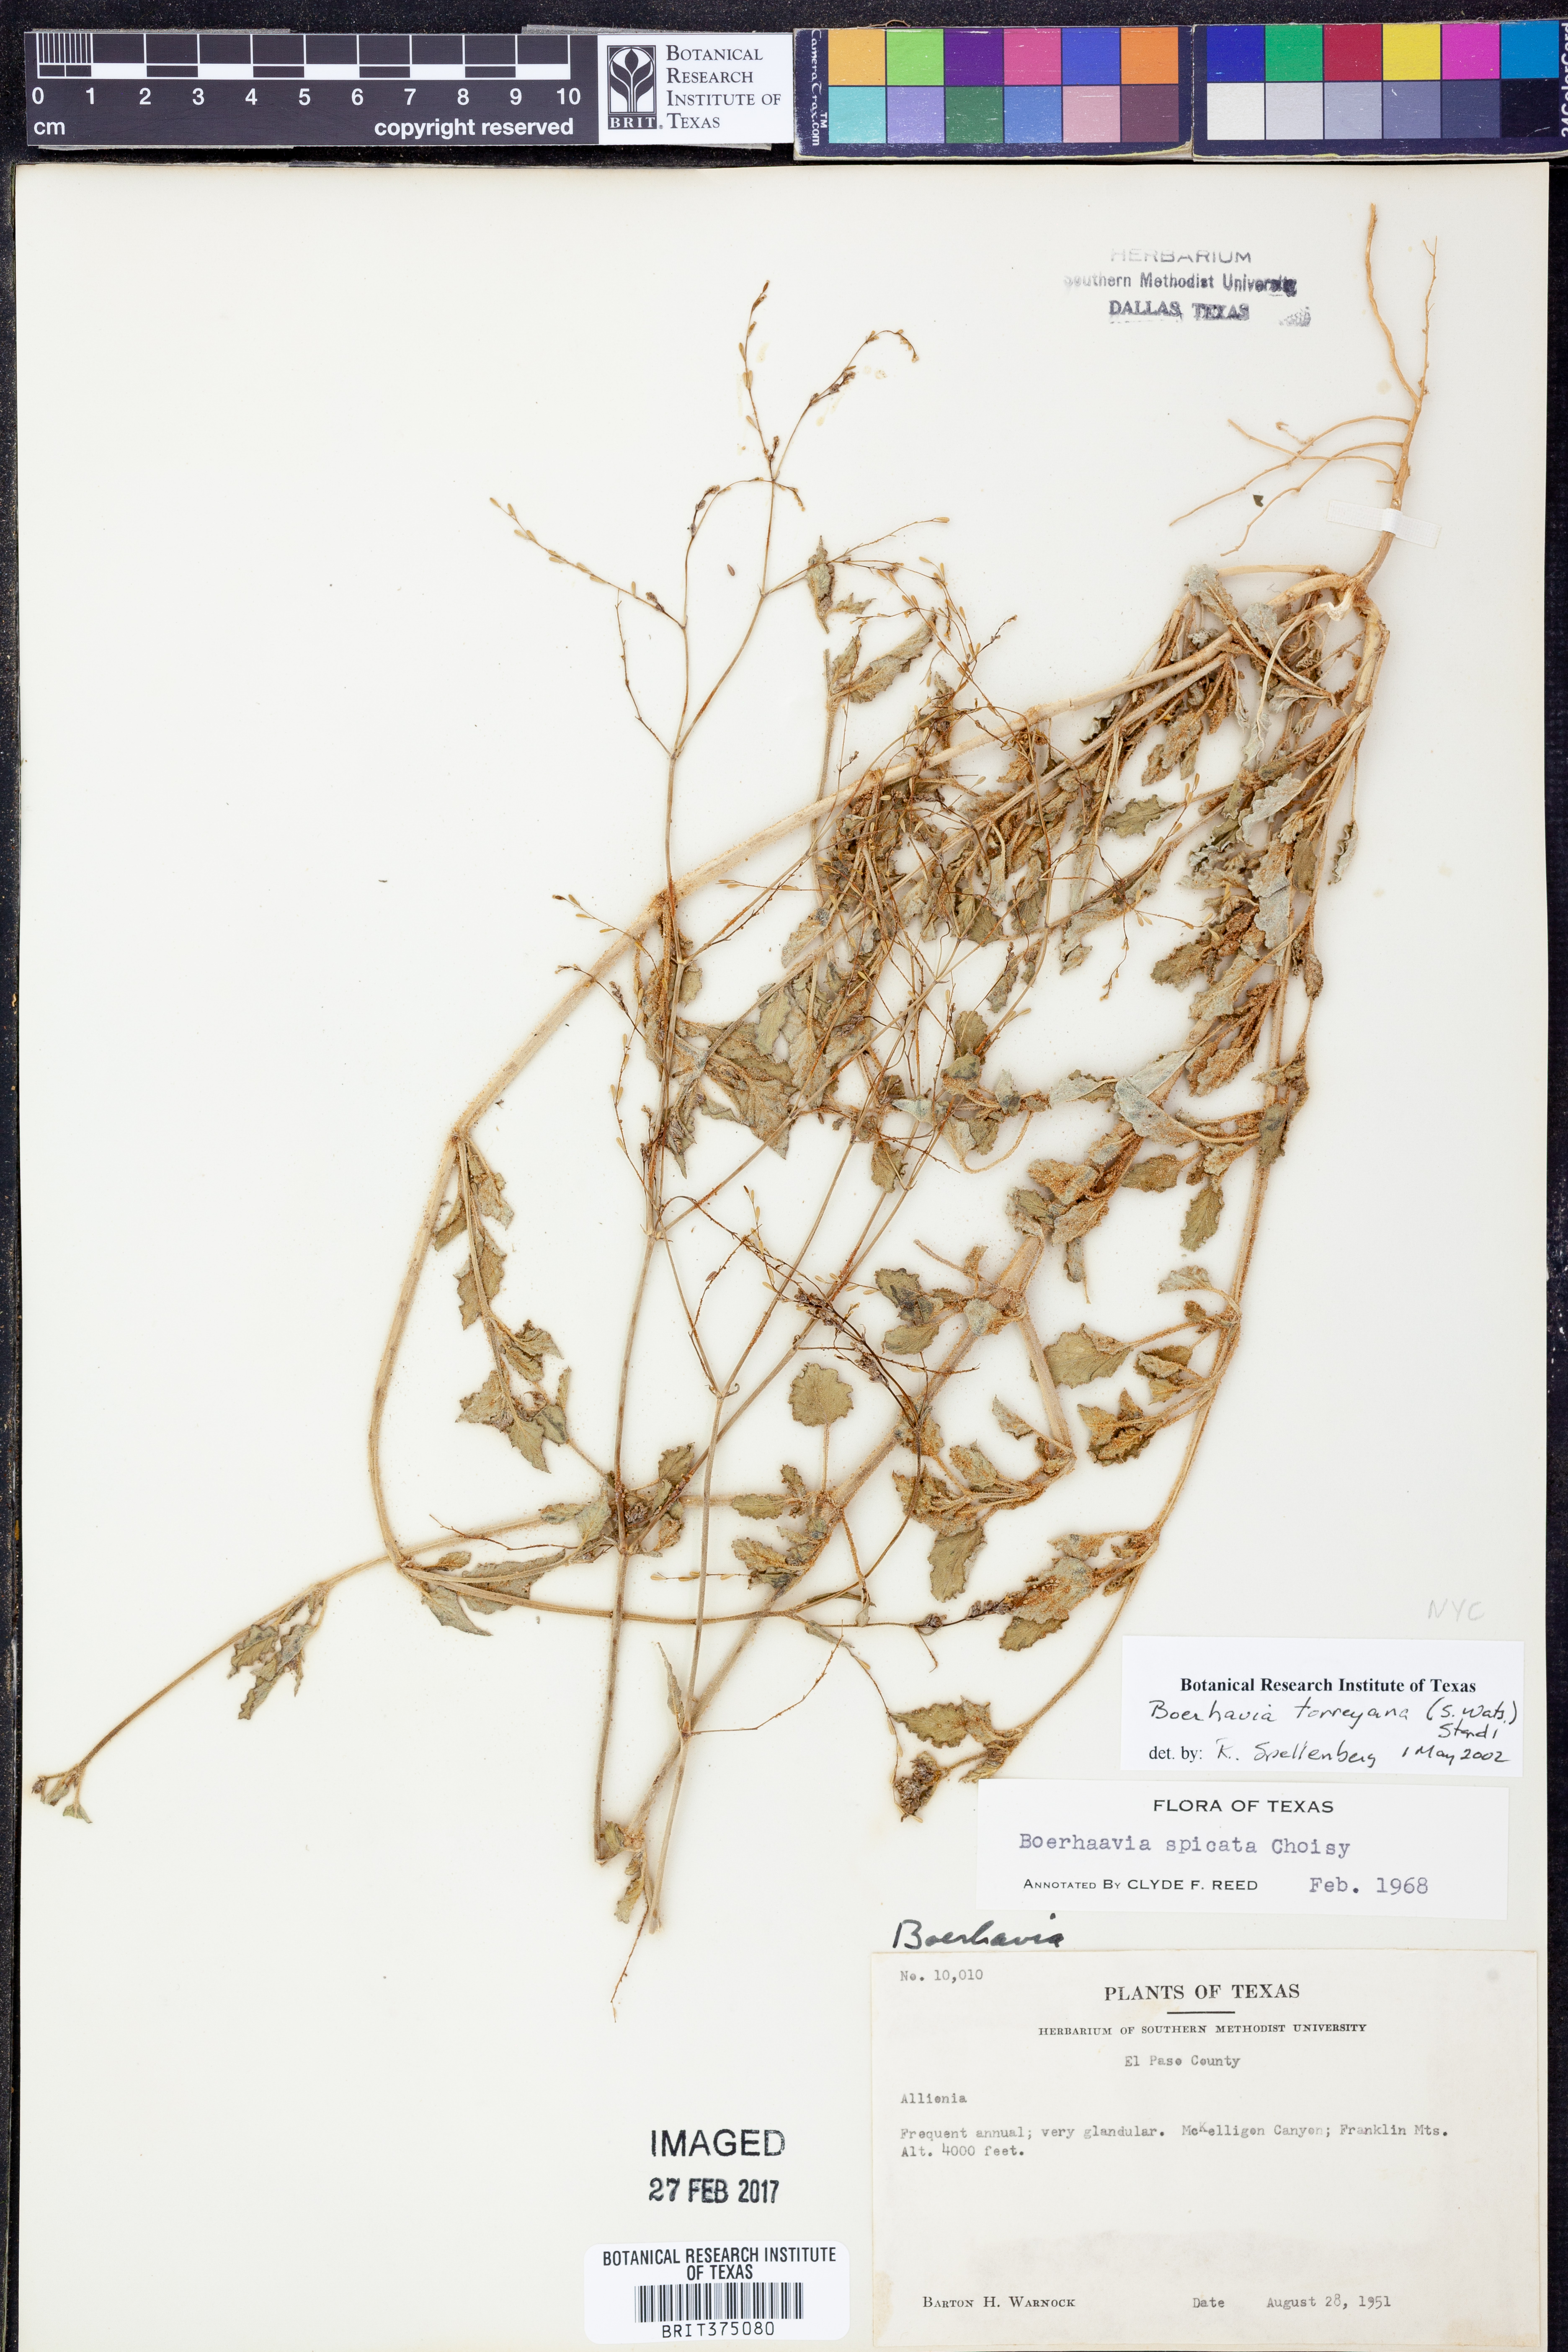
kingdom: Plantae
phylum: Tracheophyta
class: Magnoliopsida
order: Caryophyllales
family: Nyctaginaceae
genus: Boerhavia
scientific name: Boerhavia torreyana
